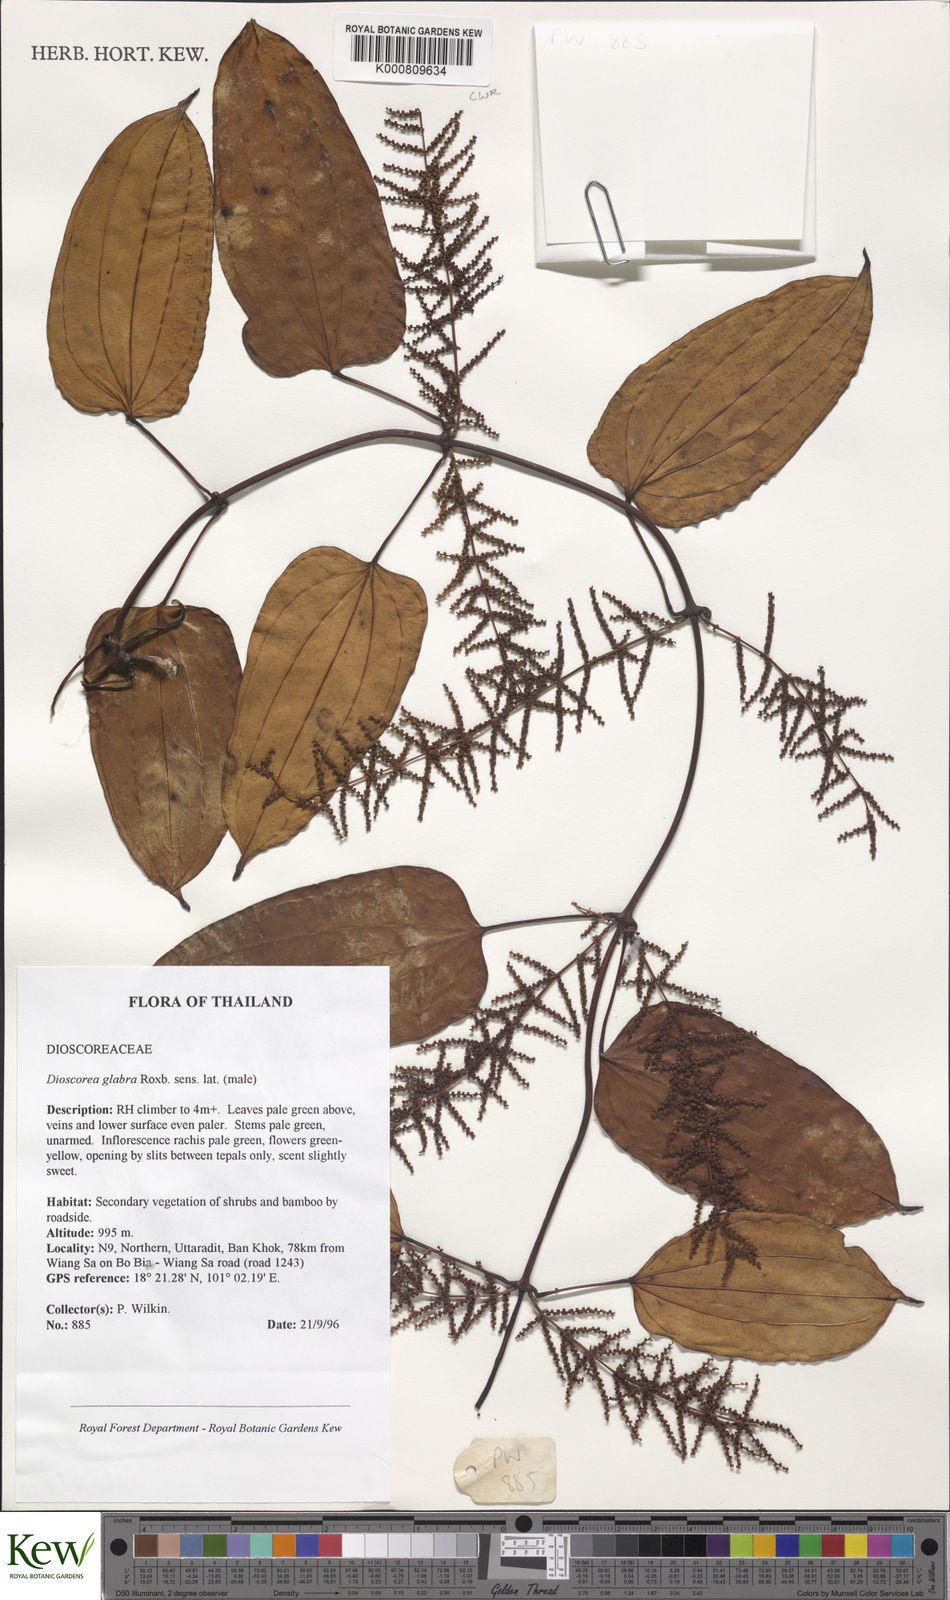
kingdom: Plantae
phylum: Tracheophyta
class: Liliopsida
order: Dioscoreales
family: Dioscoreaceae
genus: Dioscorea
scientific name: Dioscorea glabra
